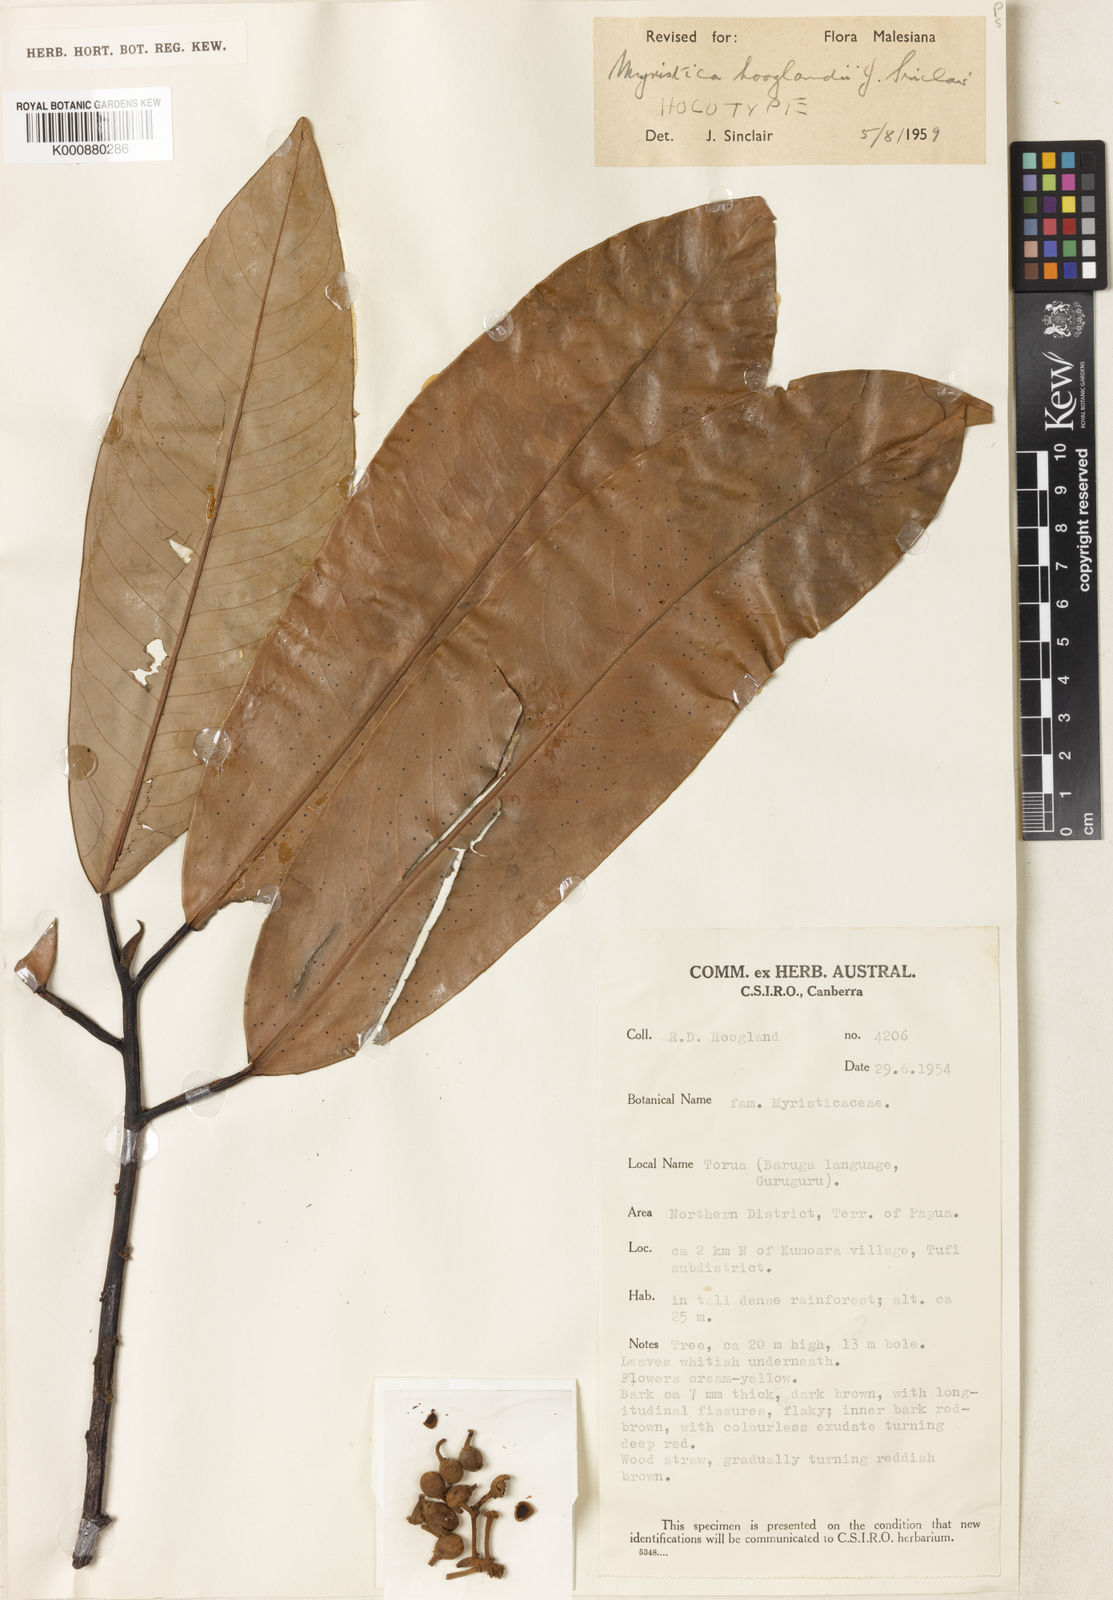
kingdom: Plantae
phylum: Tracheophyta
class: Magnoliopsida
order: Magnoliales
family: Myristicaceae
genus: Myristica
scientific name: Myristica hooglandii
